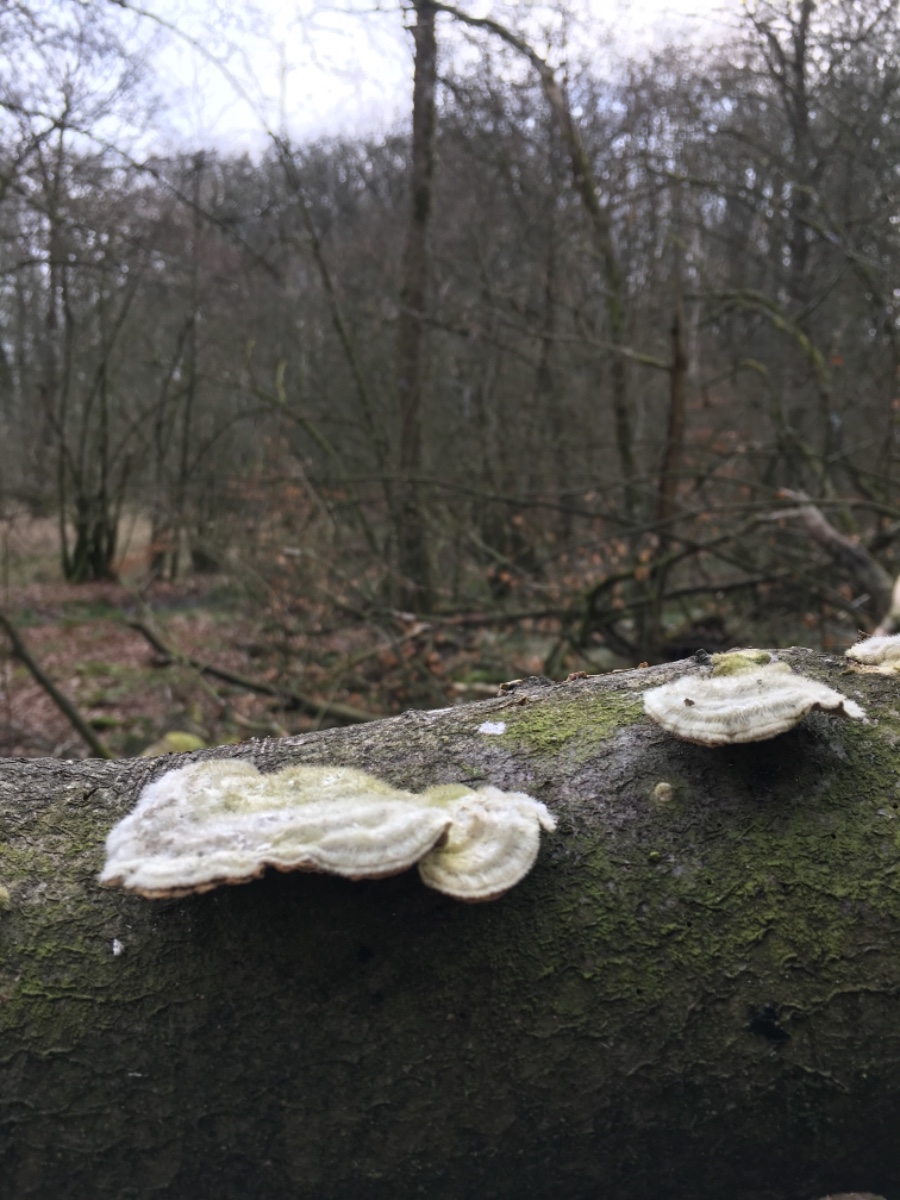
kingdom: Fungi
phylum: Basidiomycota
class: Agaricomycetes
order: Polyporales
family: Polyporaceae
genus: Trametes
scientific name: Trametes hirsuta
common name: håret læderporesvamp
